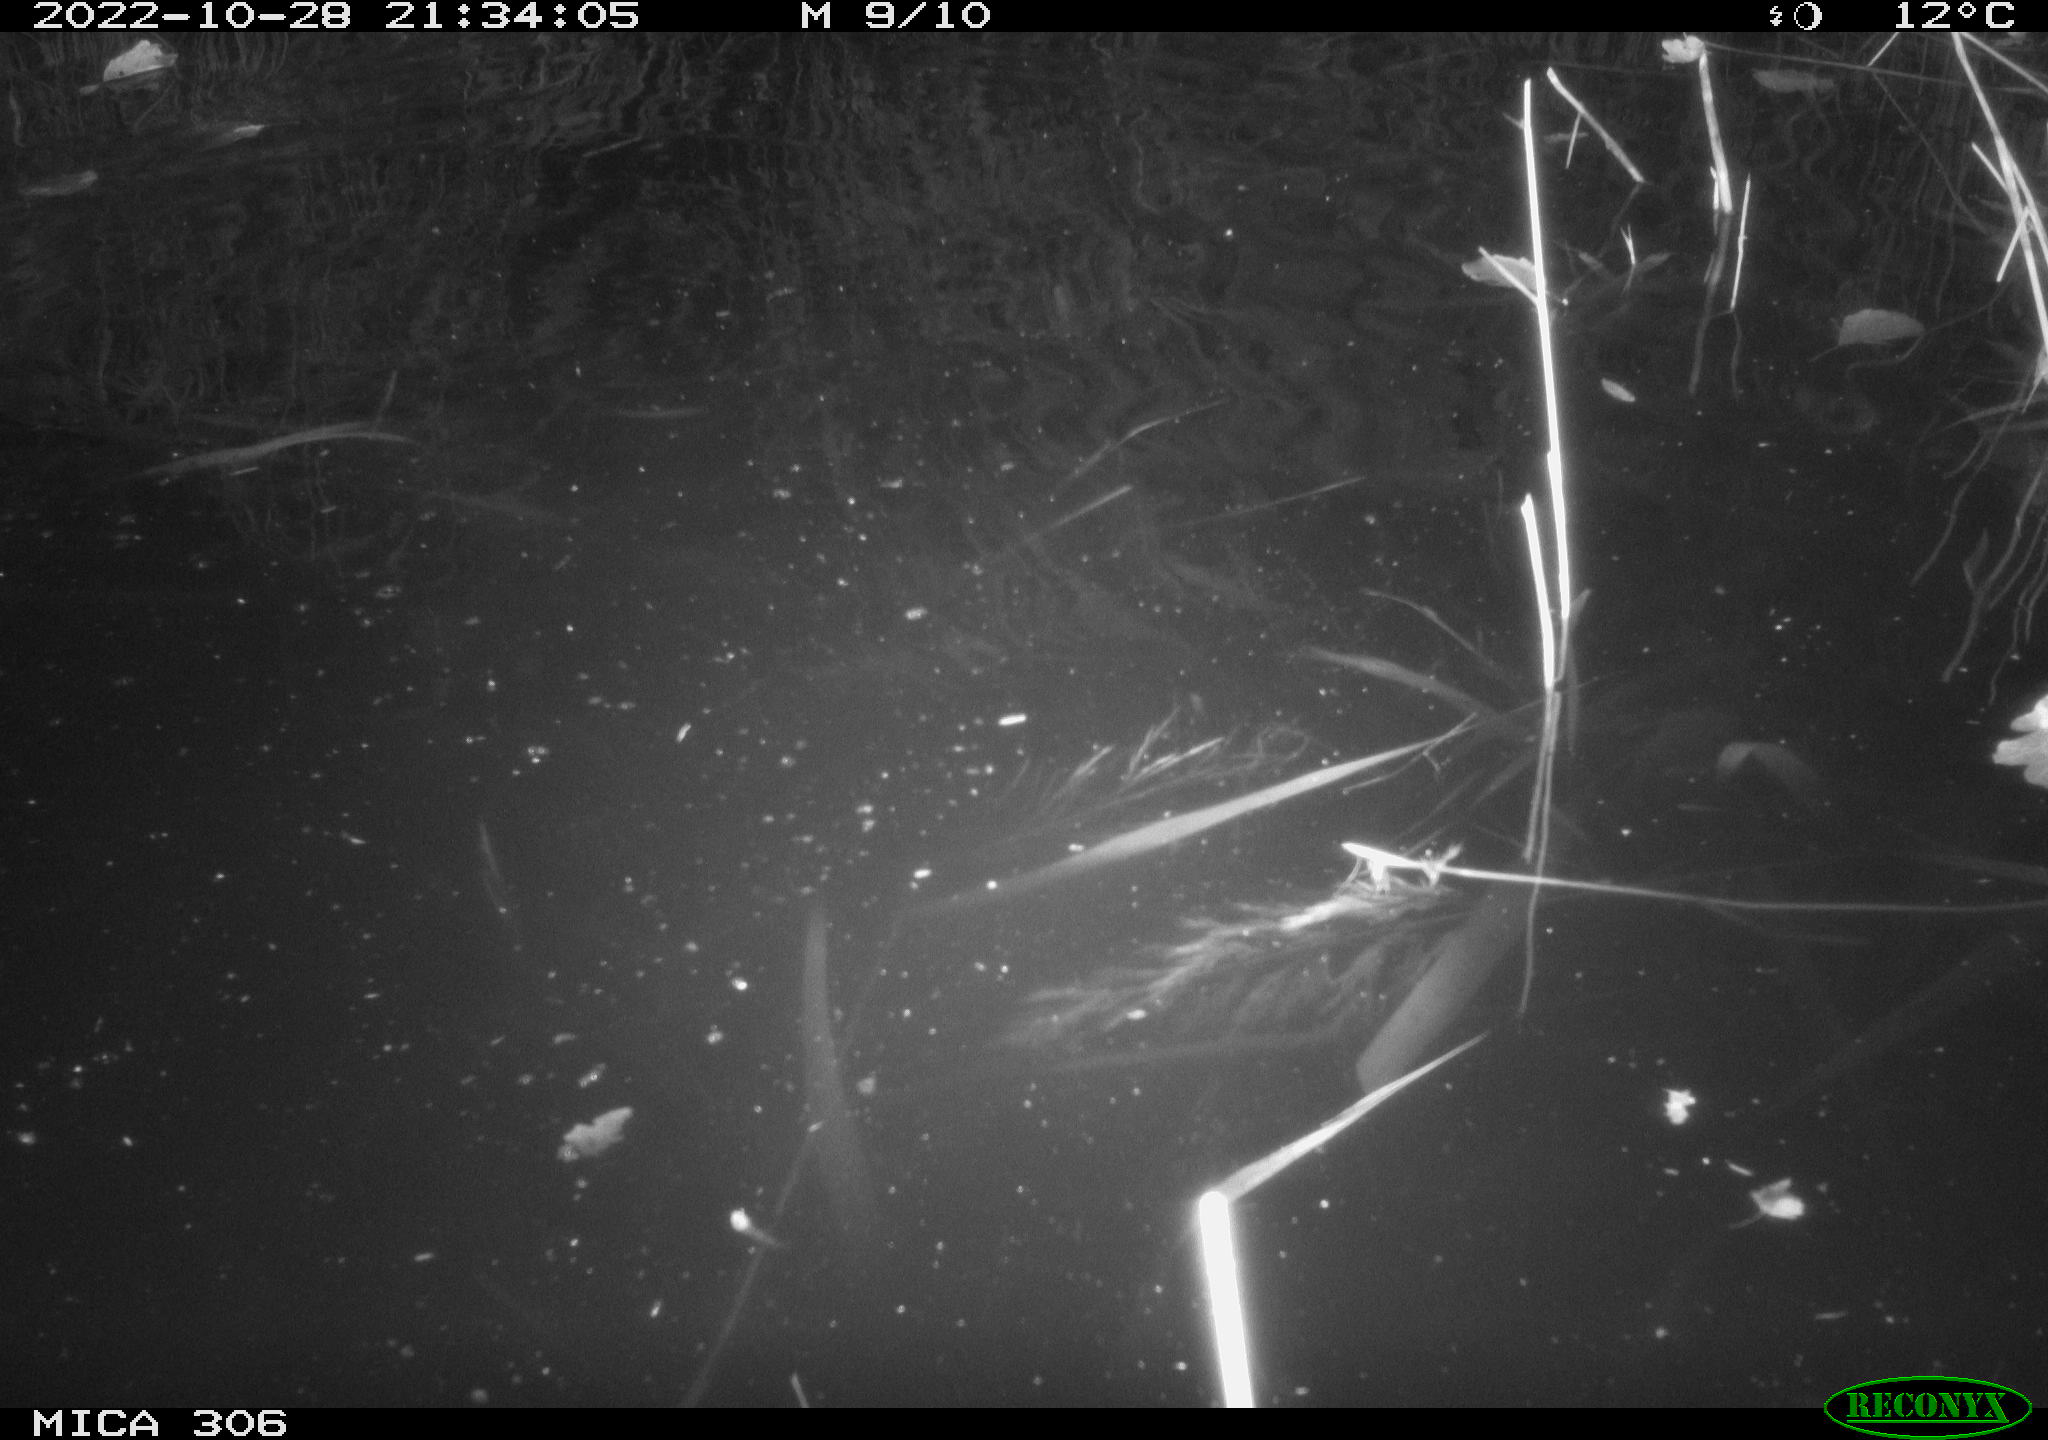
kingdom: Animalia
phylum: Chordata
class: Mammalia
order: Rodentia
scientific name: Rodentia
